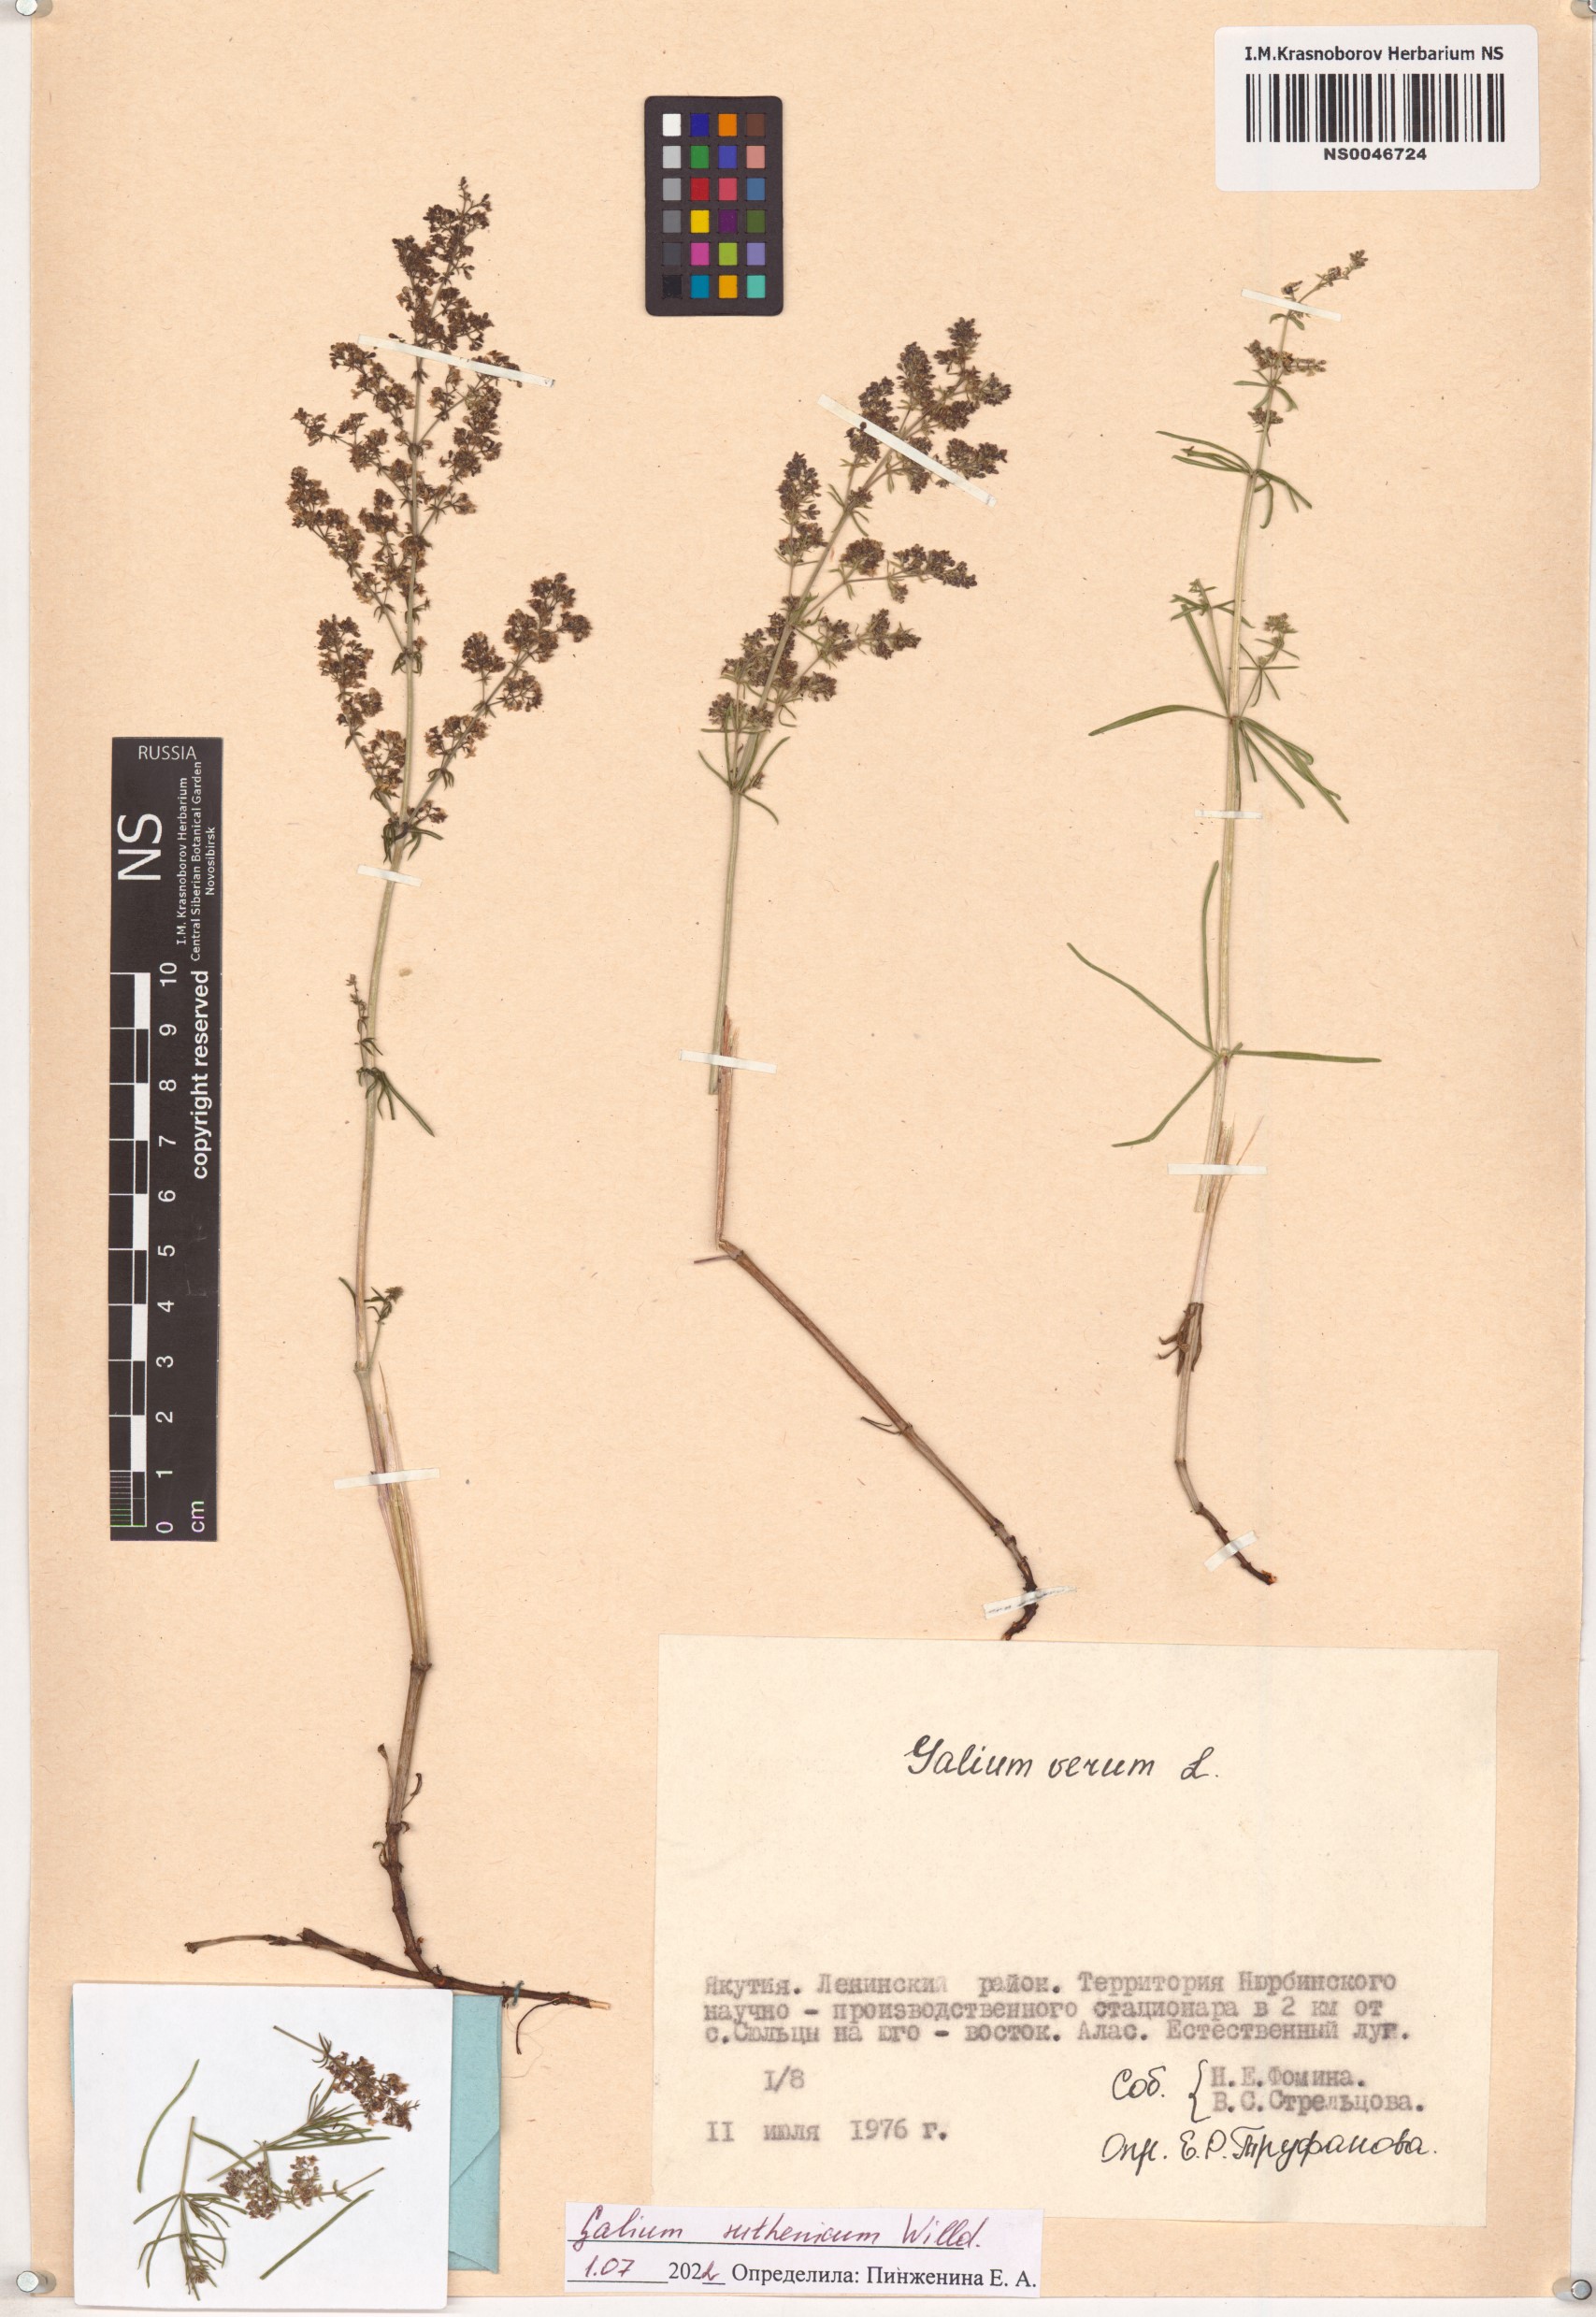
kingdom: Plantae
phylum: Tracheophyta
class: Magnoliopsida
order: Gentianales
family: Rubiaceae
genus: Galium
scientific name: Galium verum
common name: Lady's bedstraw
